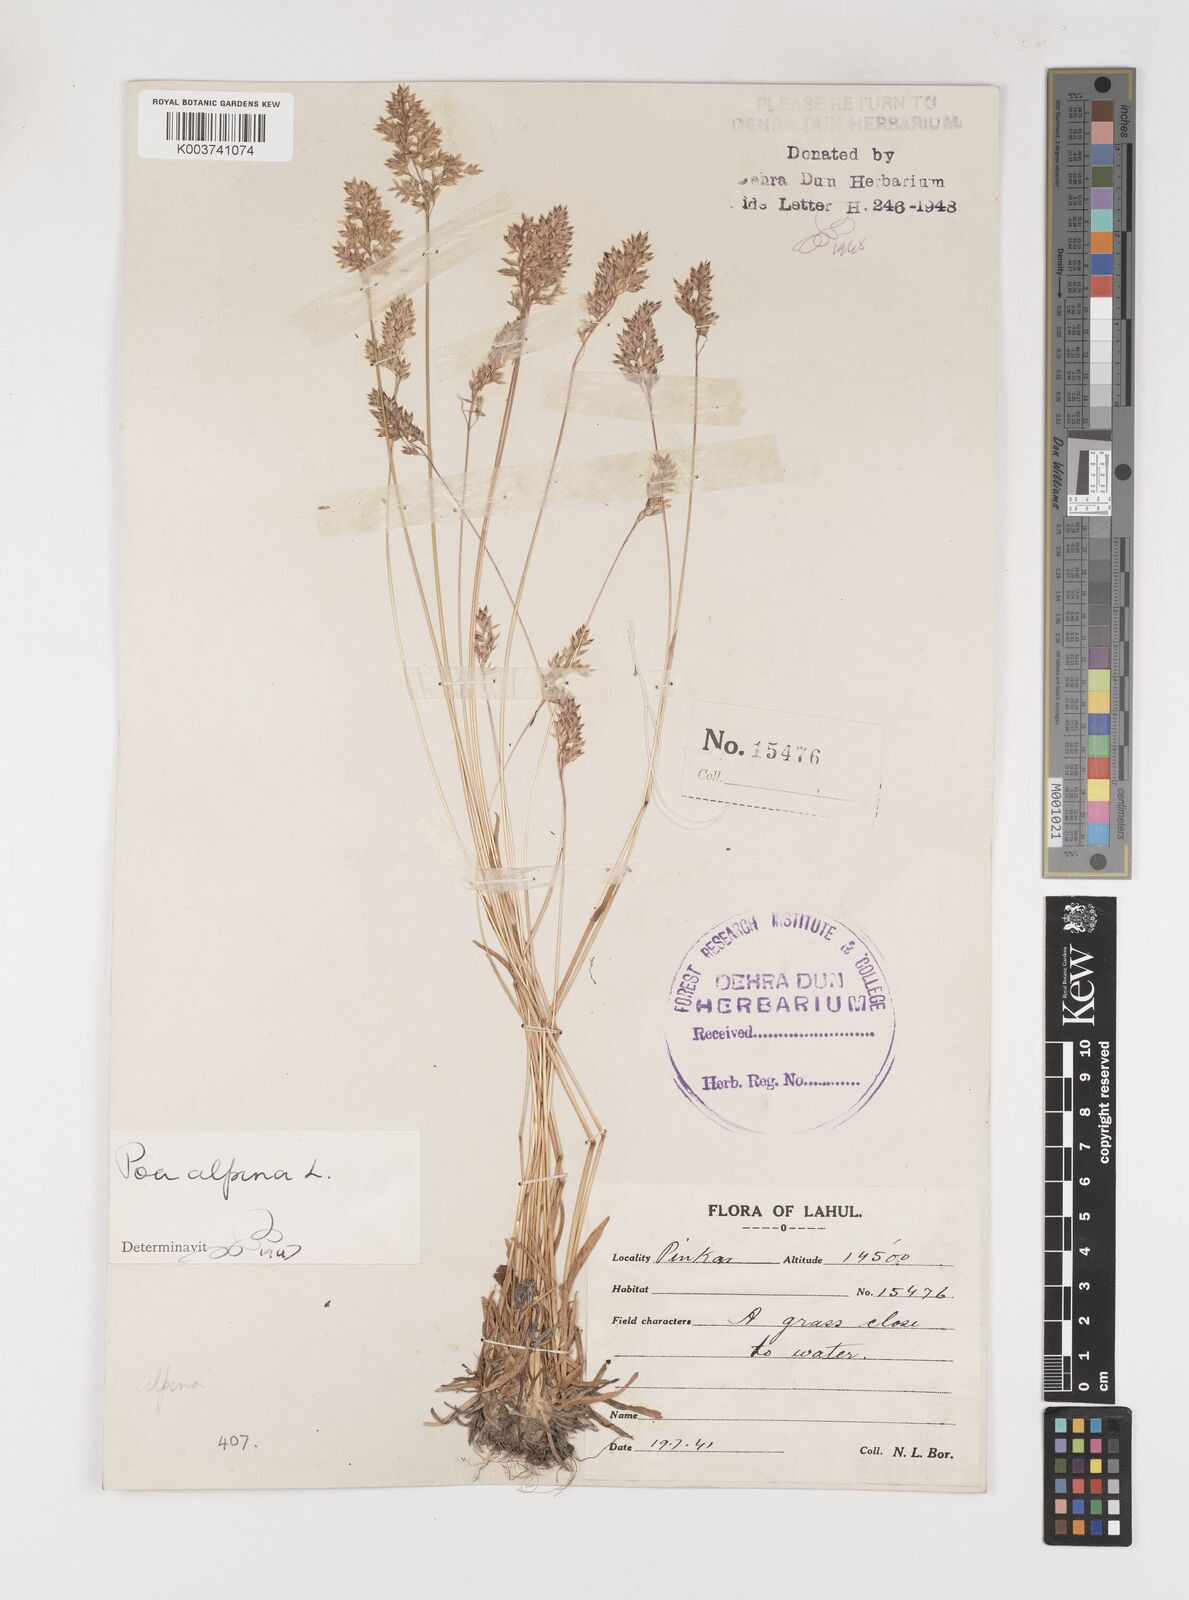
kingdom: Plantae
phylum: Tracheophyta
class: Liliopsida
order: Poales
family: Poaceae
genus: Poa
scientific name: Poa alpina
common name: Alpine bluegrass
